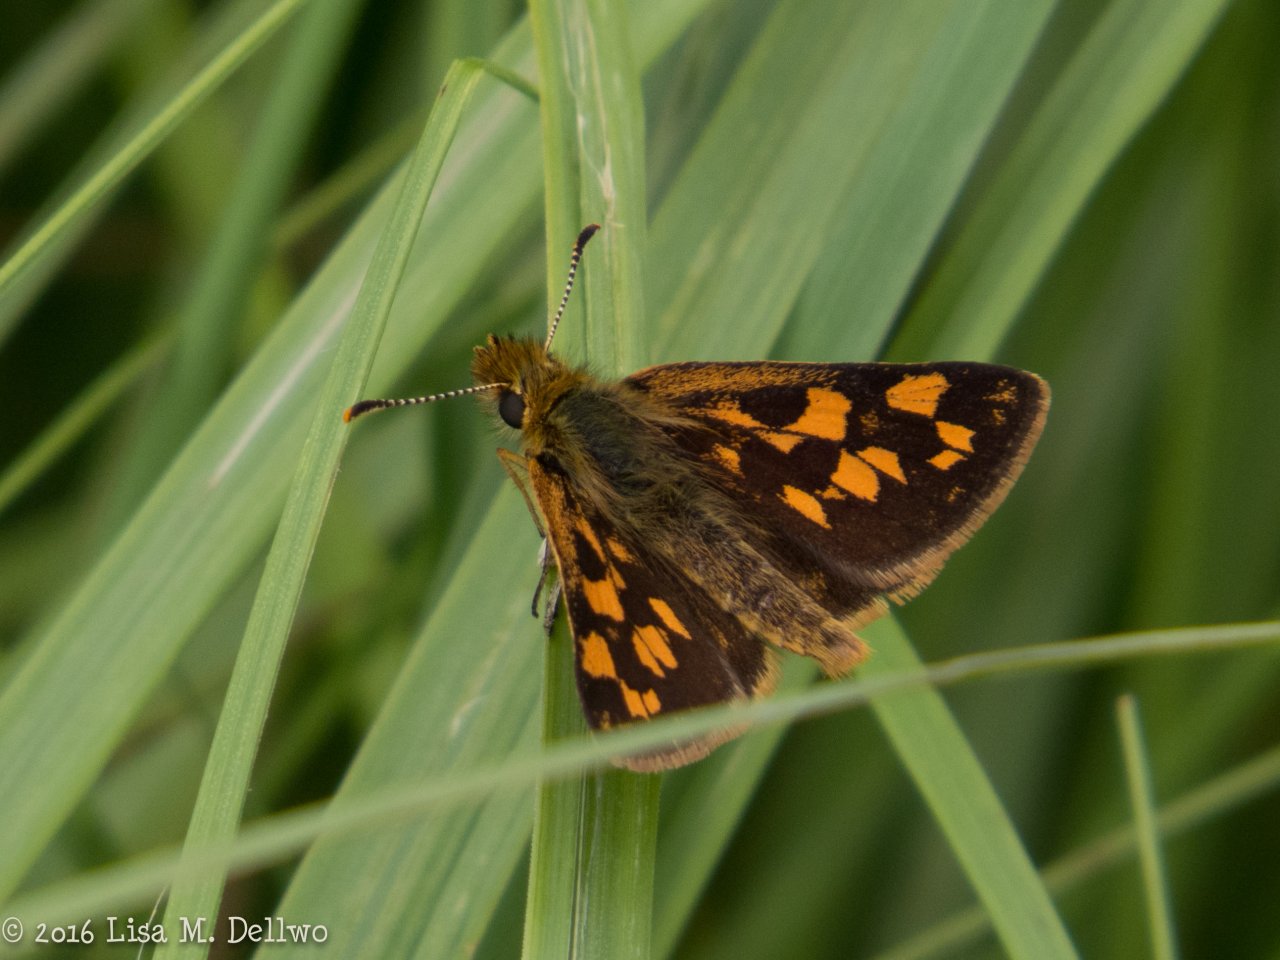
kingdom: Animalia
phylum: Arthropoda
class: Insecta
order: Lepidoptera
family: Hesperiidae
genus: Carterocephalus
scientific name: Carterocephalus palaemon
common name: Chequered Skipper
